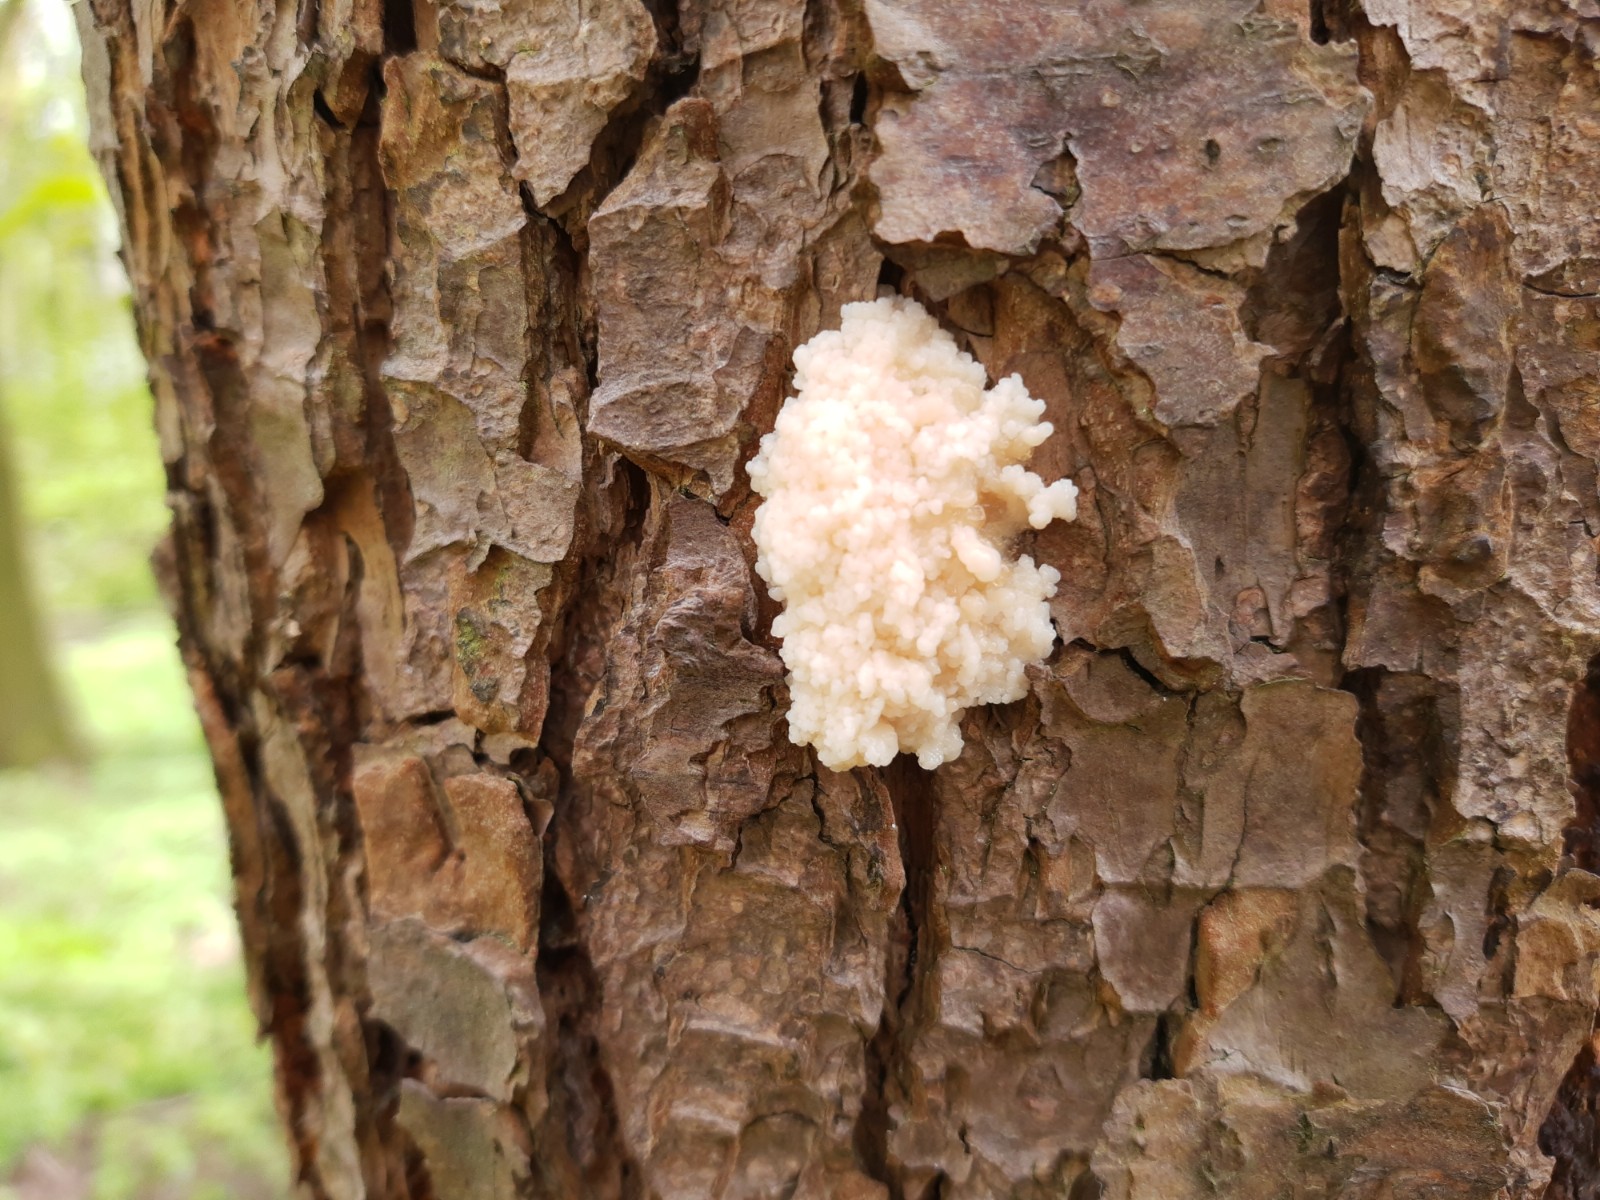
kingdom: Protozoa
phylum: Mycetozoa
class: Myxomycetes
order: Cribrariales
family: Tubiferaceae
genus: Reticularia
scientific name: Reticularia lycoperdon
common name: skinnende støvpude
